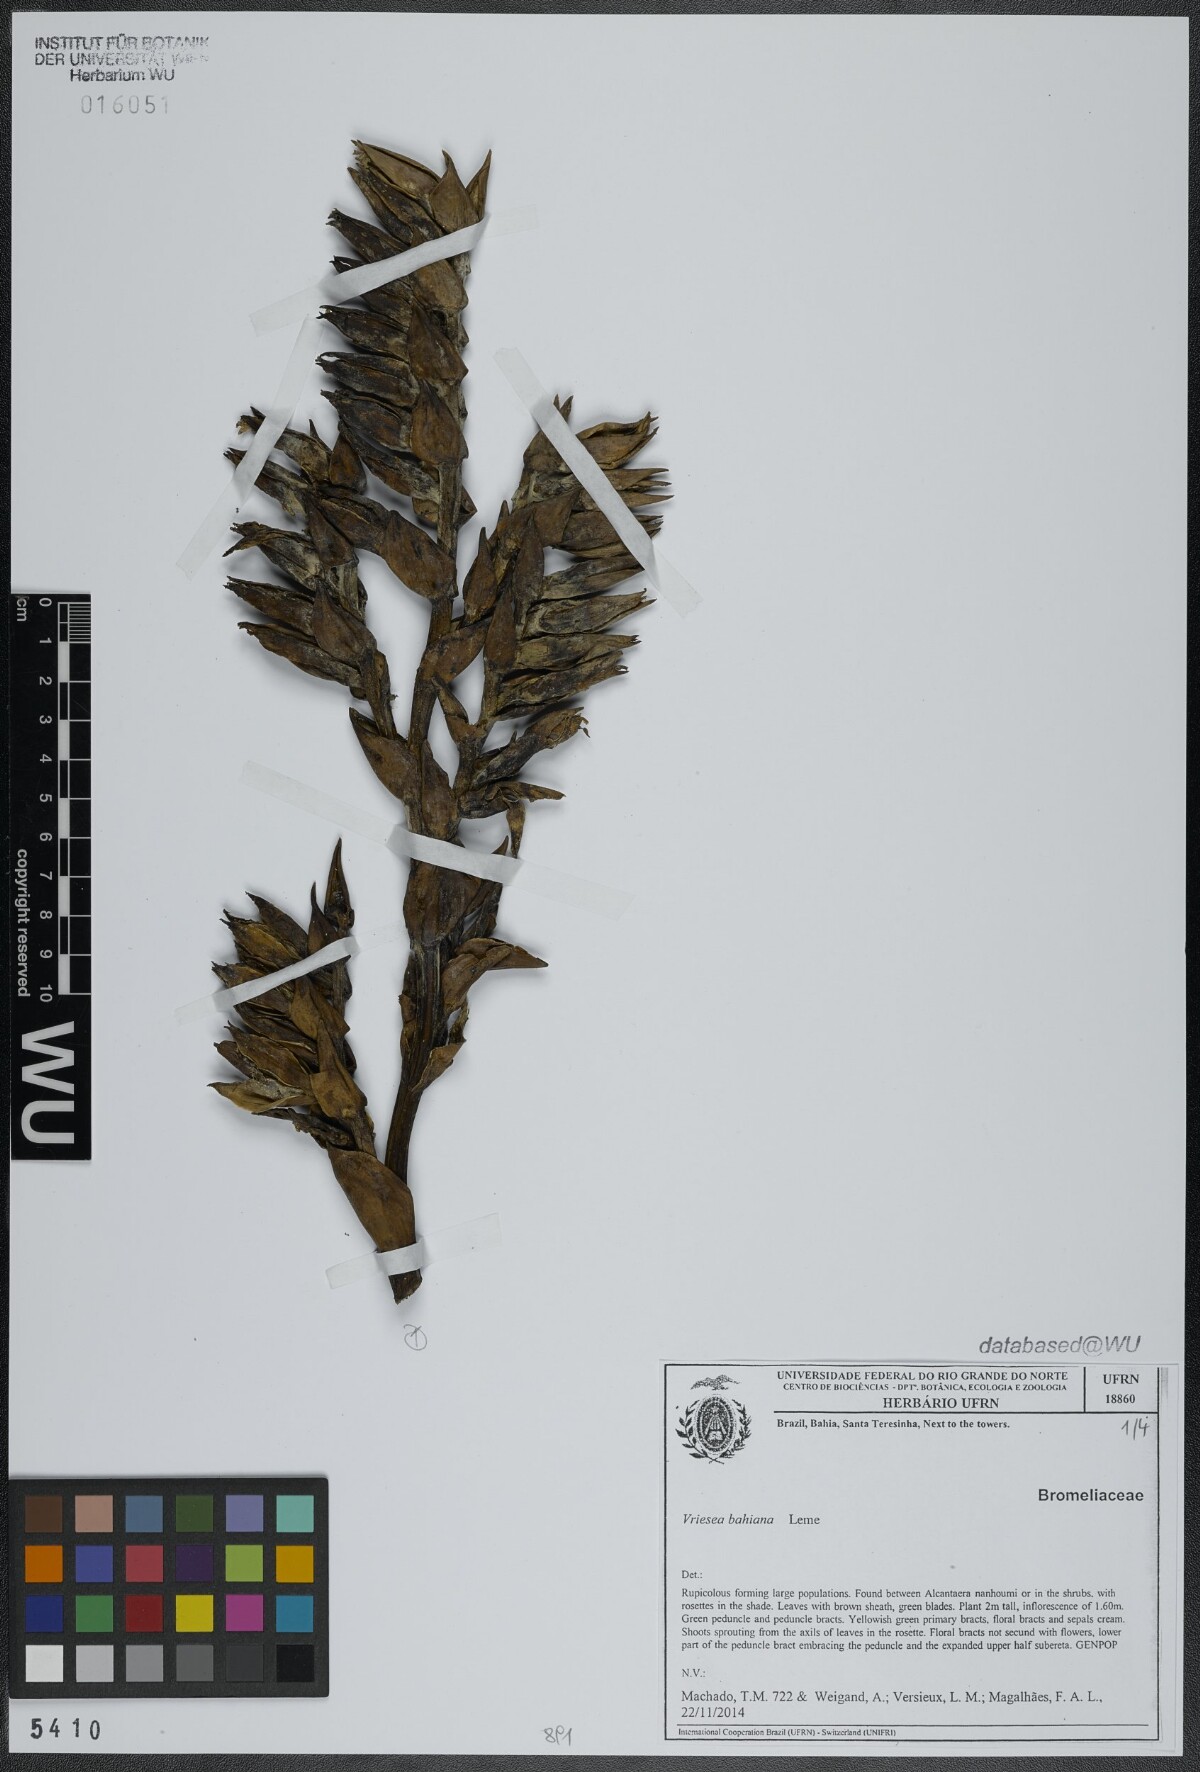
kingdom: Plantae
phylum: Tracheophyta
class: Liliopsida
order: Poales
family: Bromeliaceae
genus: Vriesea
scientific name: Vriesea bahiana
